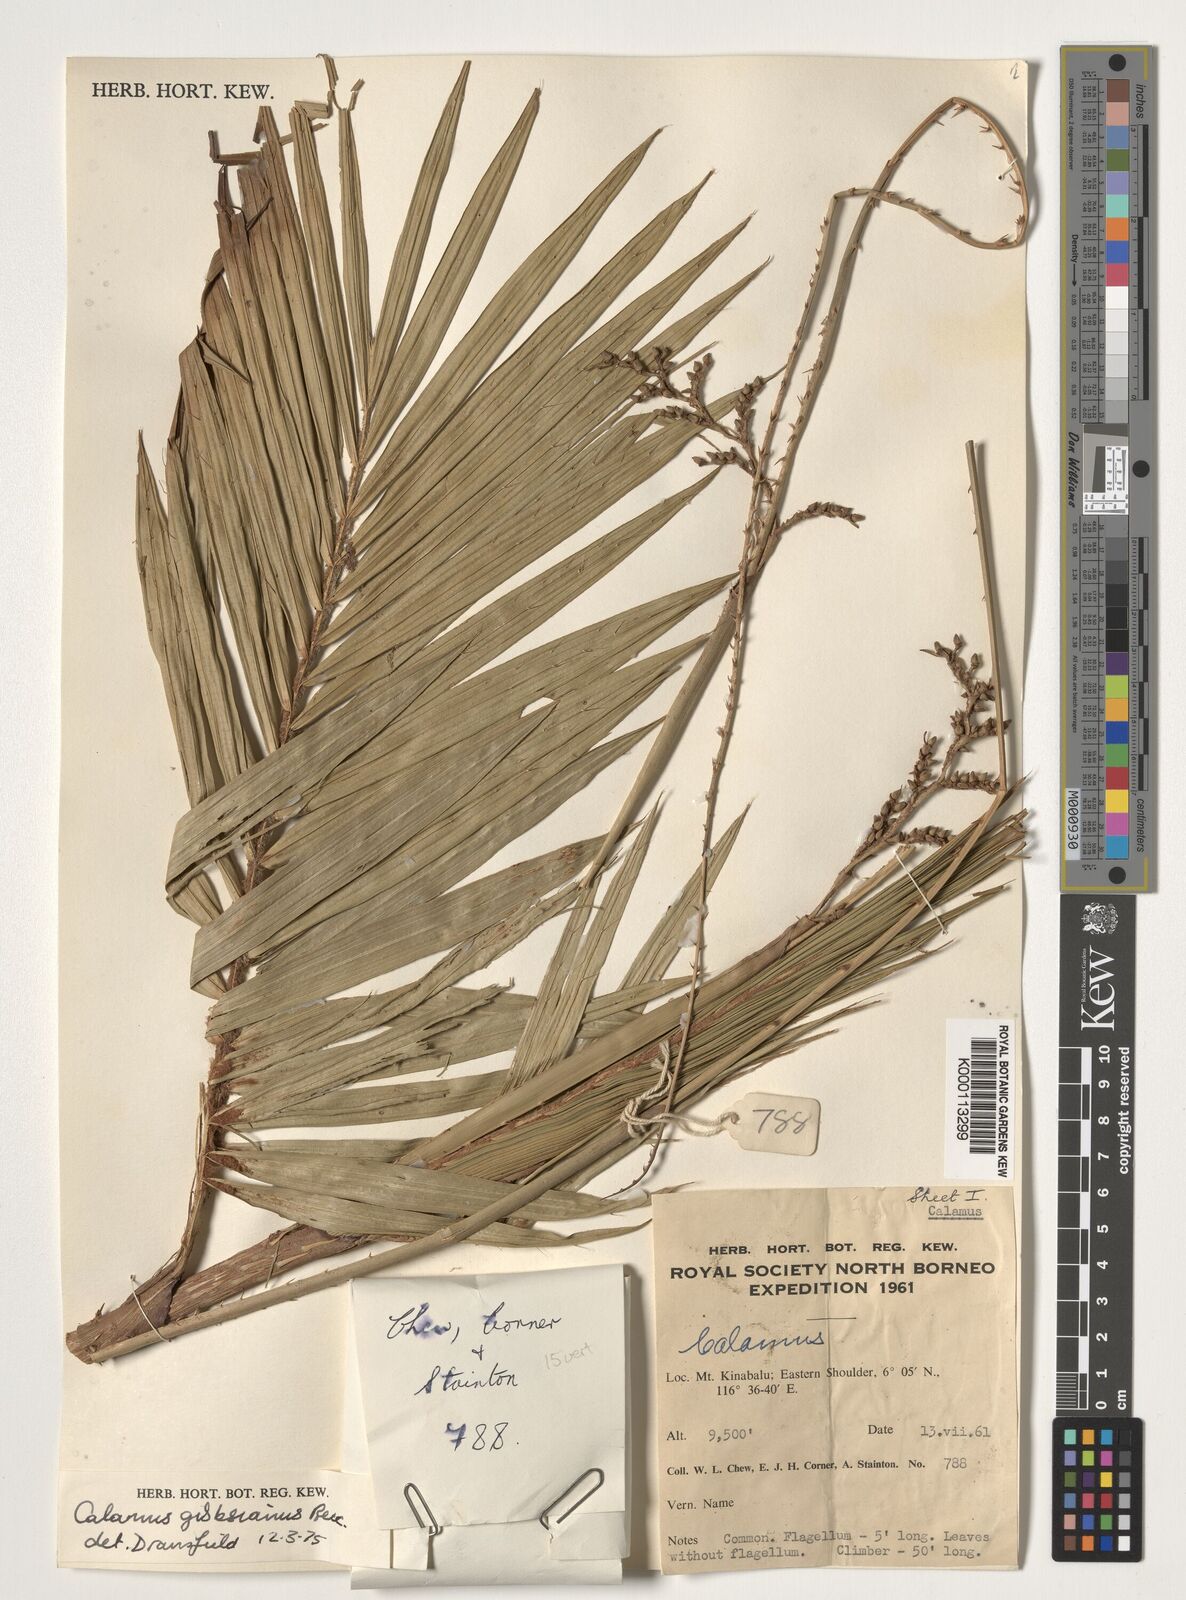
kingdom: Plantae
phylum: Tracheophyta
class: Liliopsida
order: Arecales
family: Arecaceae
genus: Calamus
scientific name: Calamus gibbsianus
